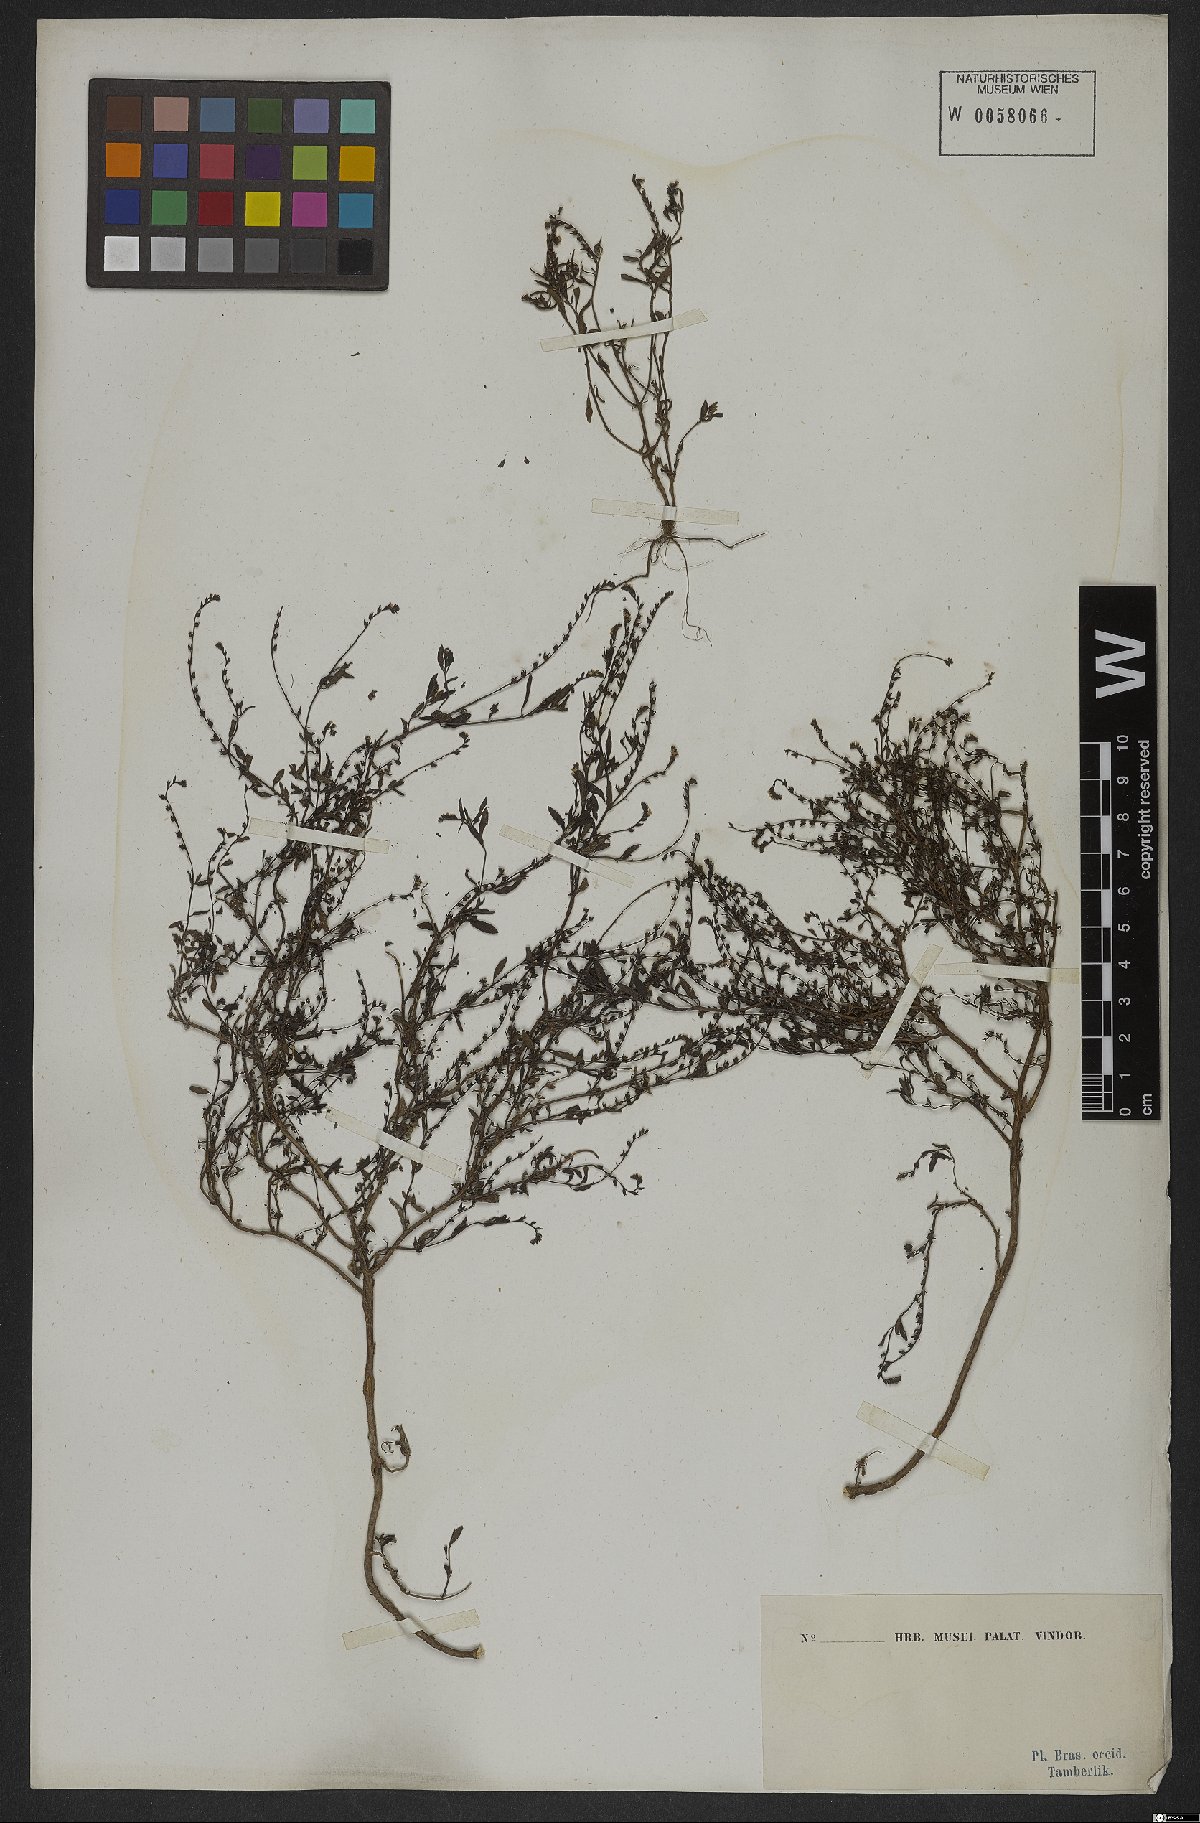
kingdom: Plantae
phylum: Tracheophyta
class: Magnoliopsida
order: Boraginales
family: Heliotropiaceae
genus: Euploca
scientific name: Euploca filiformis
